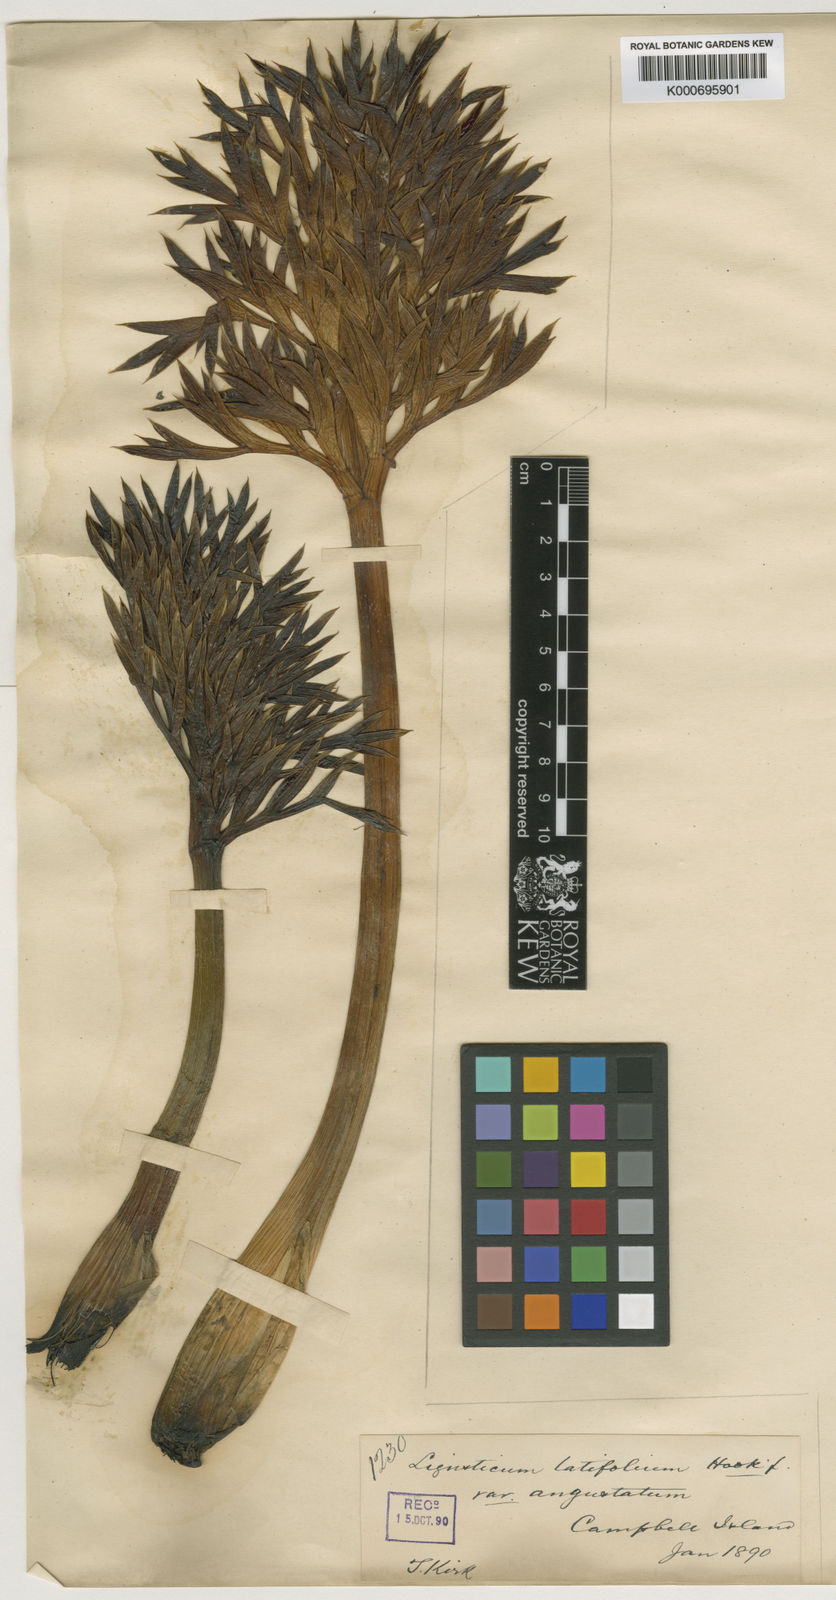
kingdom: Plantae
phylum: Tracheophyta
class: Magnoliopsida
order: Apiales
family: Apiaceae
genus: Anisotome
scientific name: Anisotome latifolia
